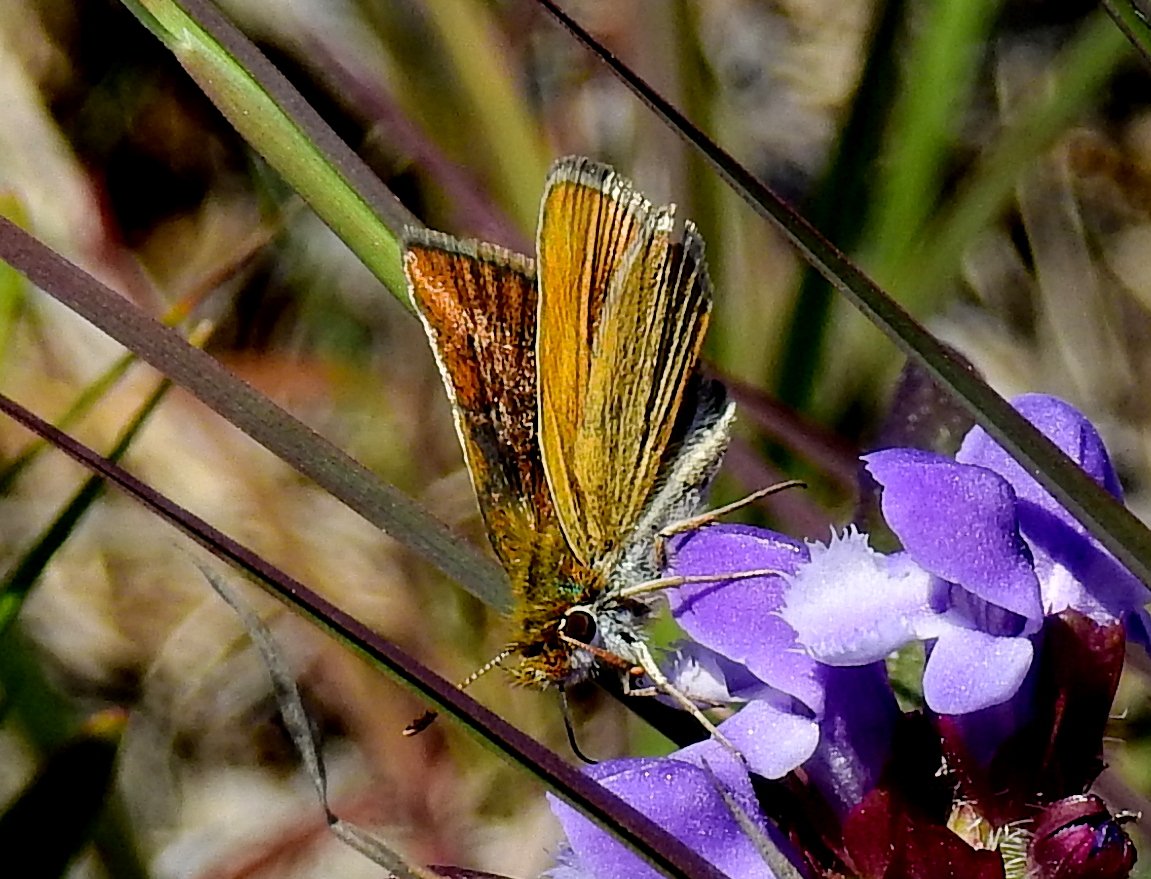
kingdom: Animalia
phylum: Arthropoda
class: Insecta
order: Lepidoptera
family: Hesperiidae
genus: Oarisma
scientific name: Oarisma garita
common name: Garita Skipperling
